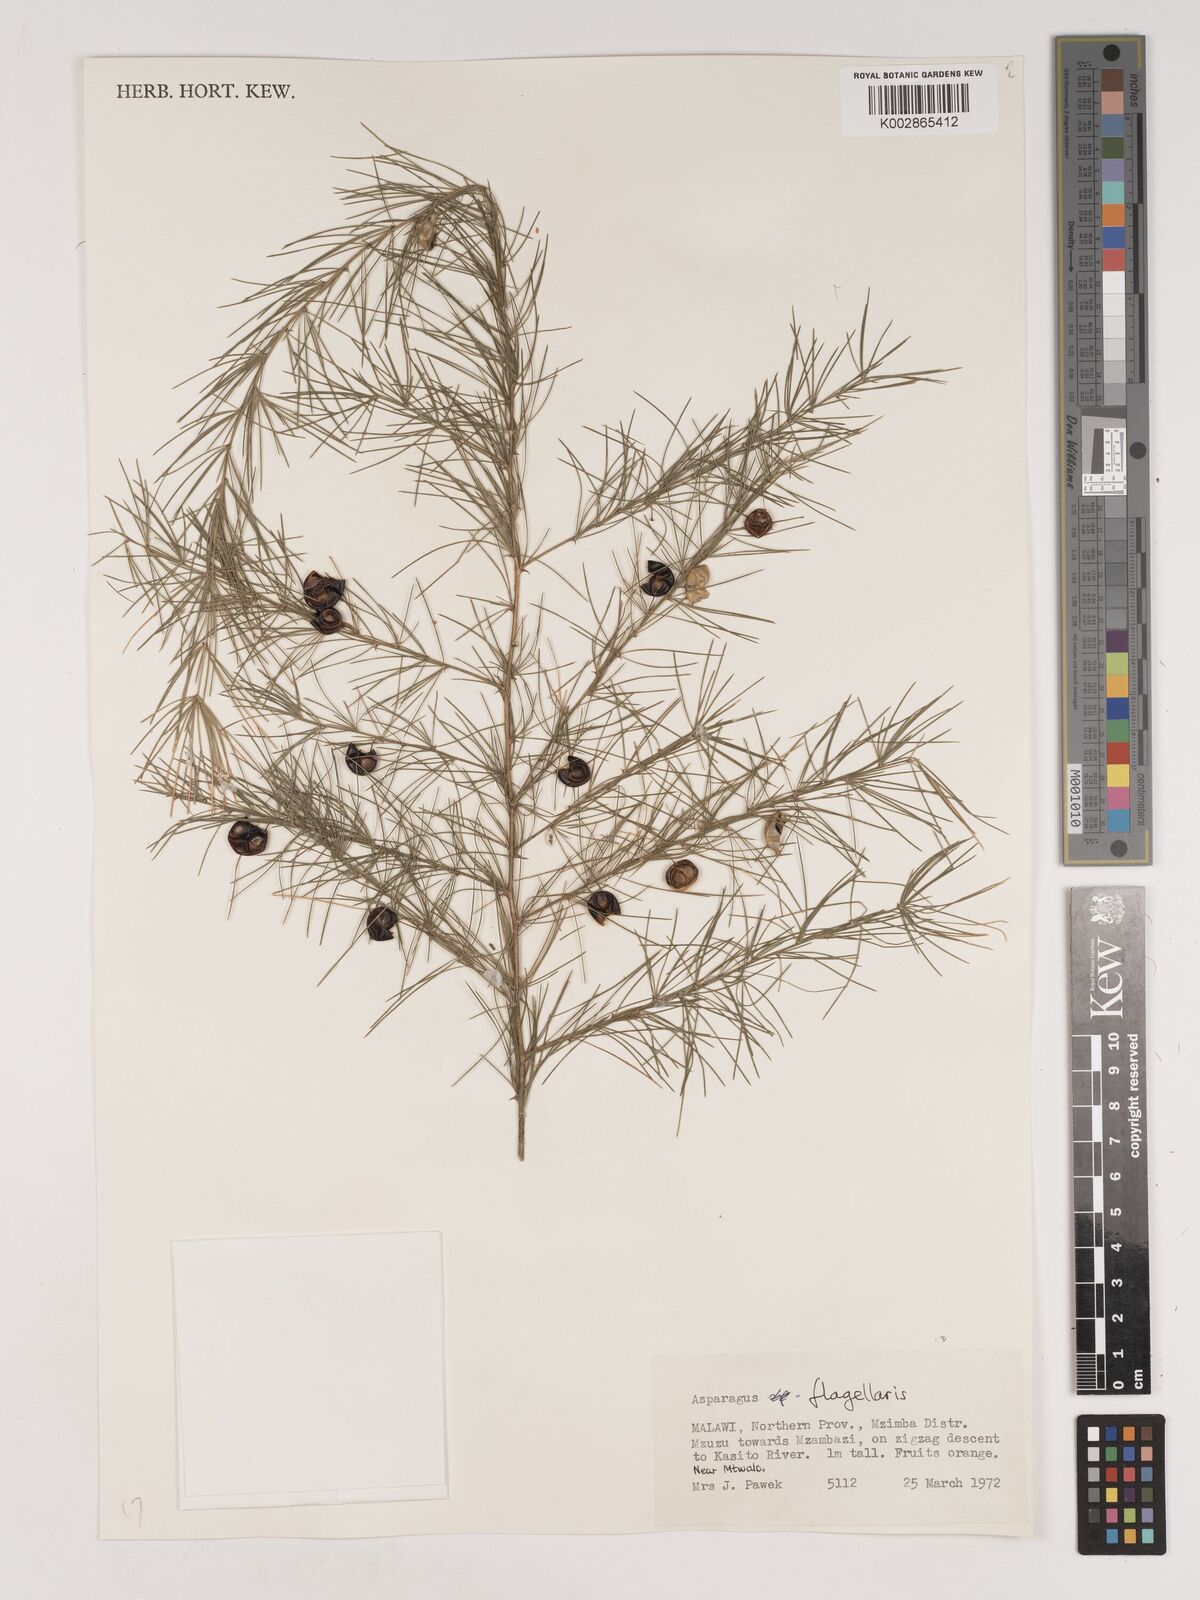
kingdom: Plantae
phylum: Tracheophyta
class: Liliopsida
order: Asparagales
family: Asparagaceae
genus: Asparagus
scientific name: Asparagus flagellaris
